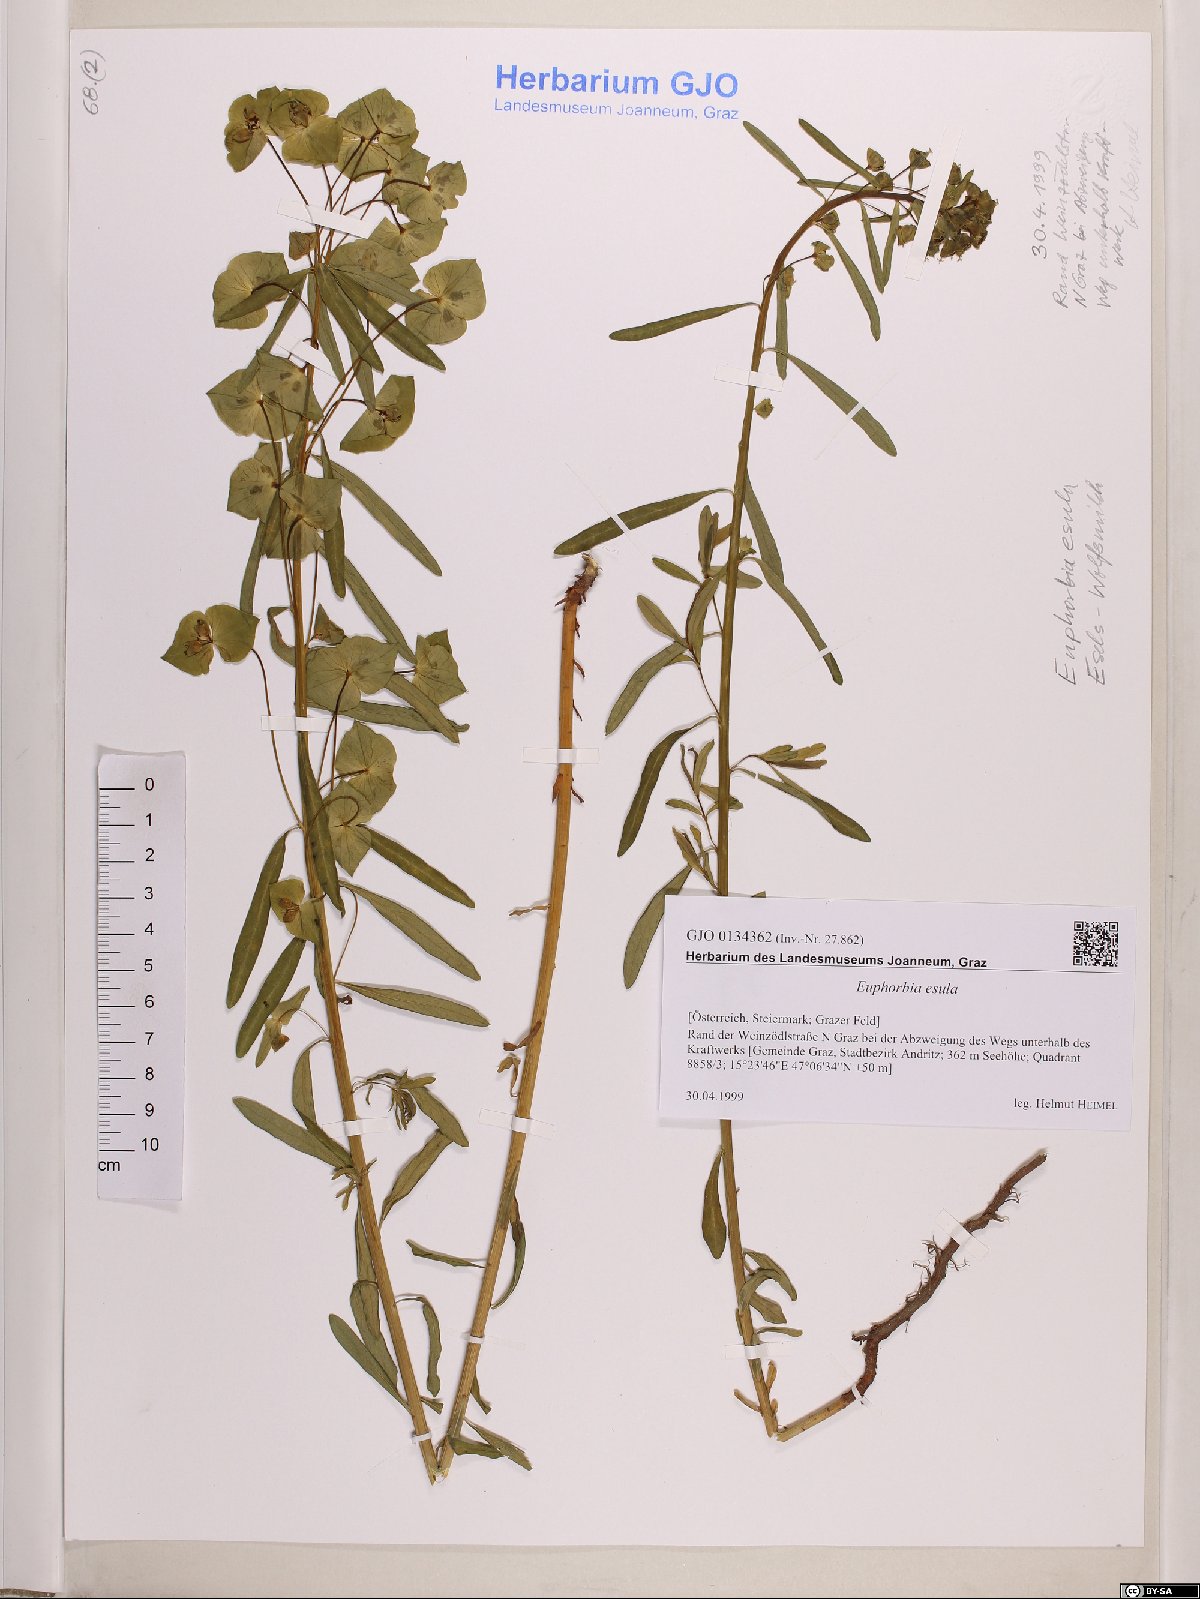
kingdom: Plantae
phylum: Tracheophyta
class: Magnoliopsida
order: Malpighiales
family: Euphorbiaceae
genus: Euphorbia
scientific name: Euphorbia esula
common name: Leafy spurge
